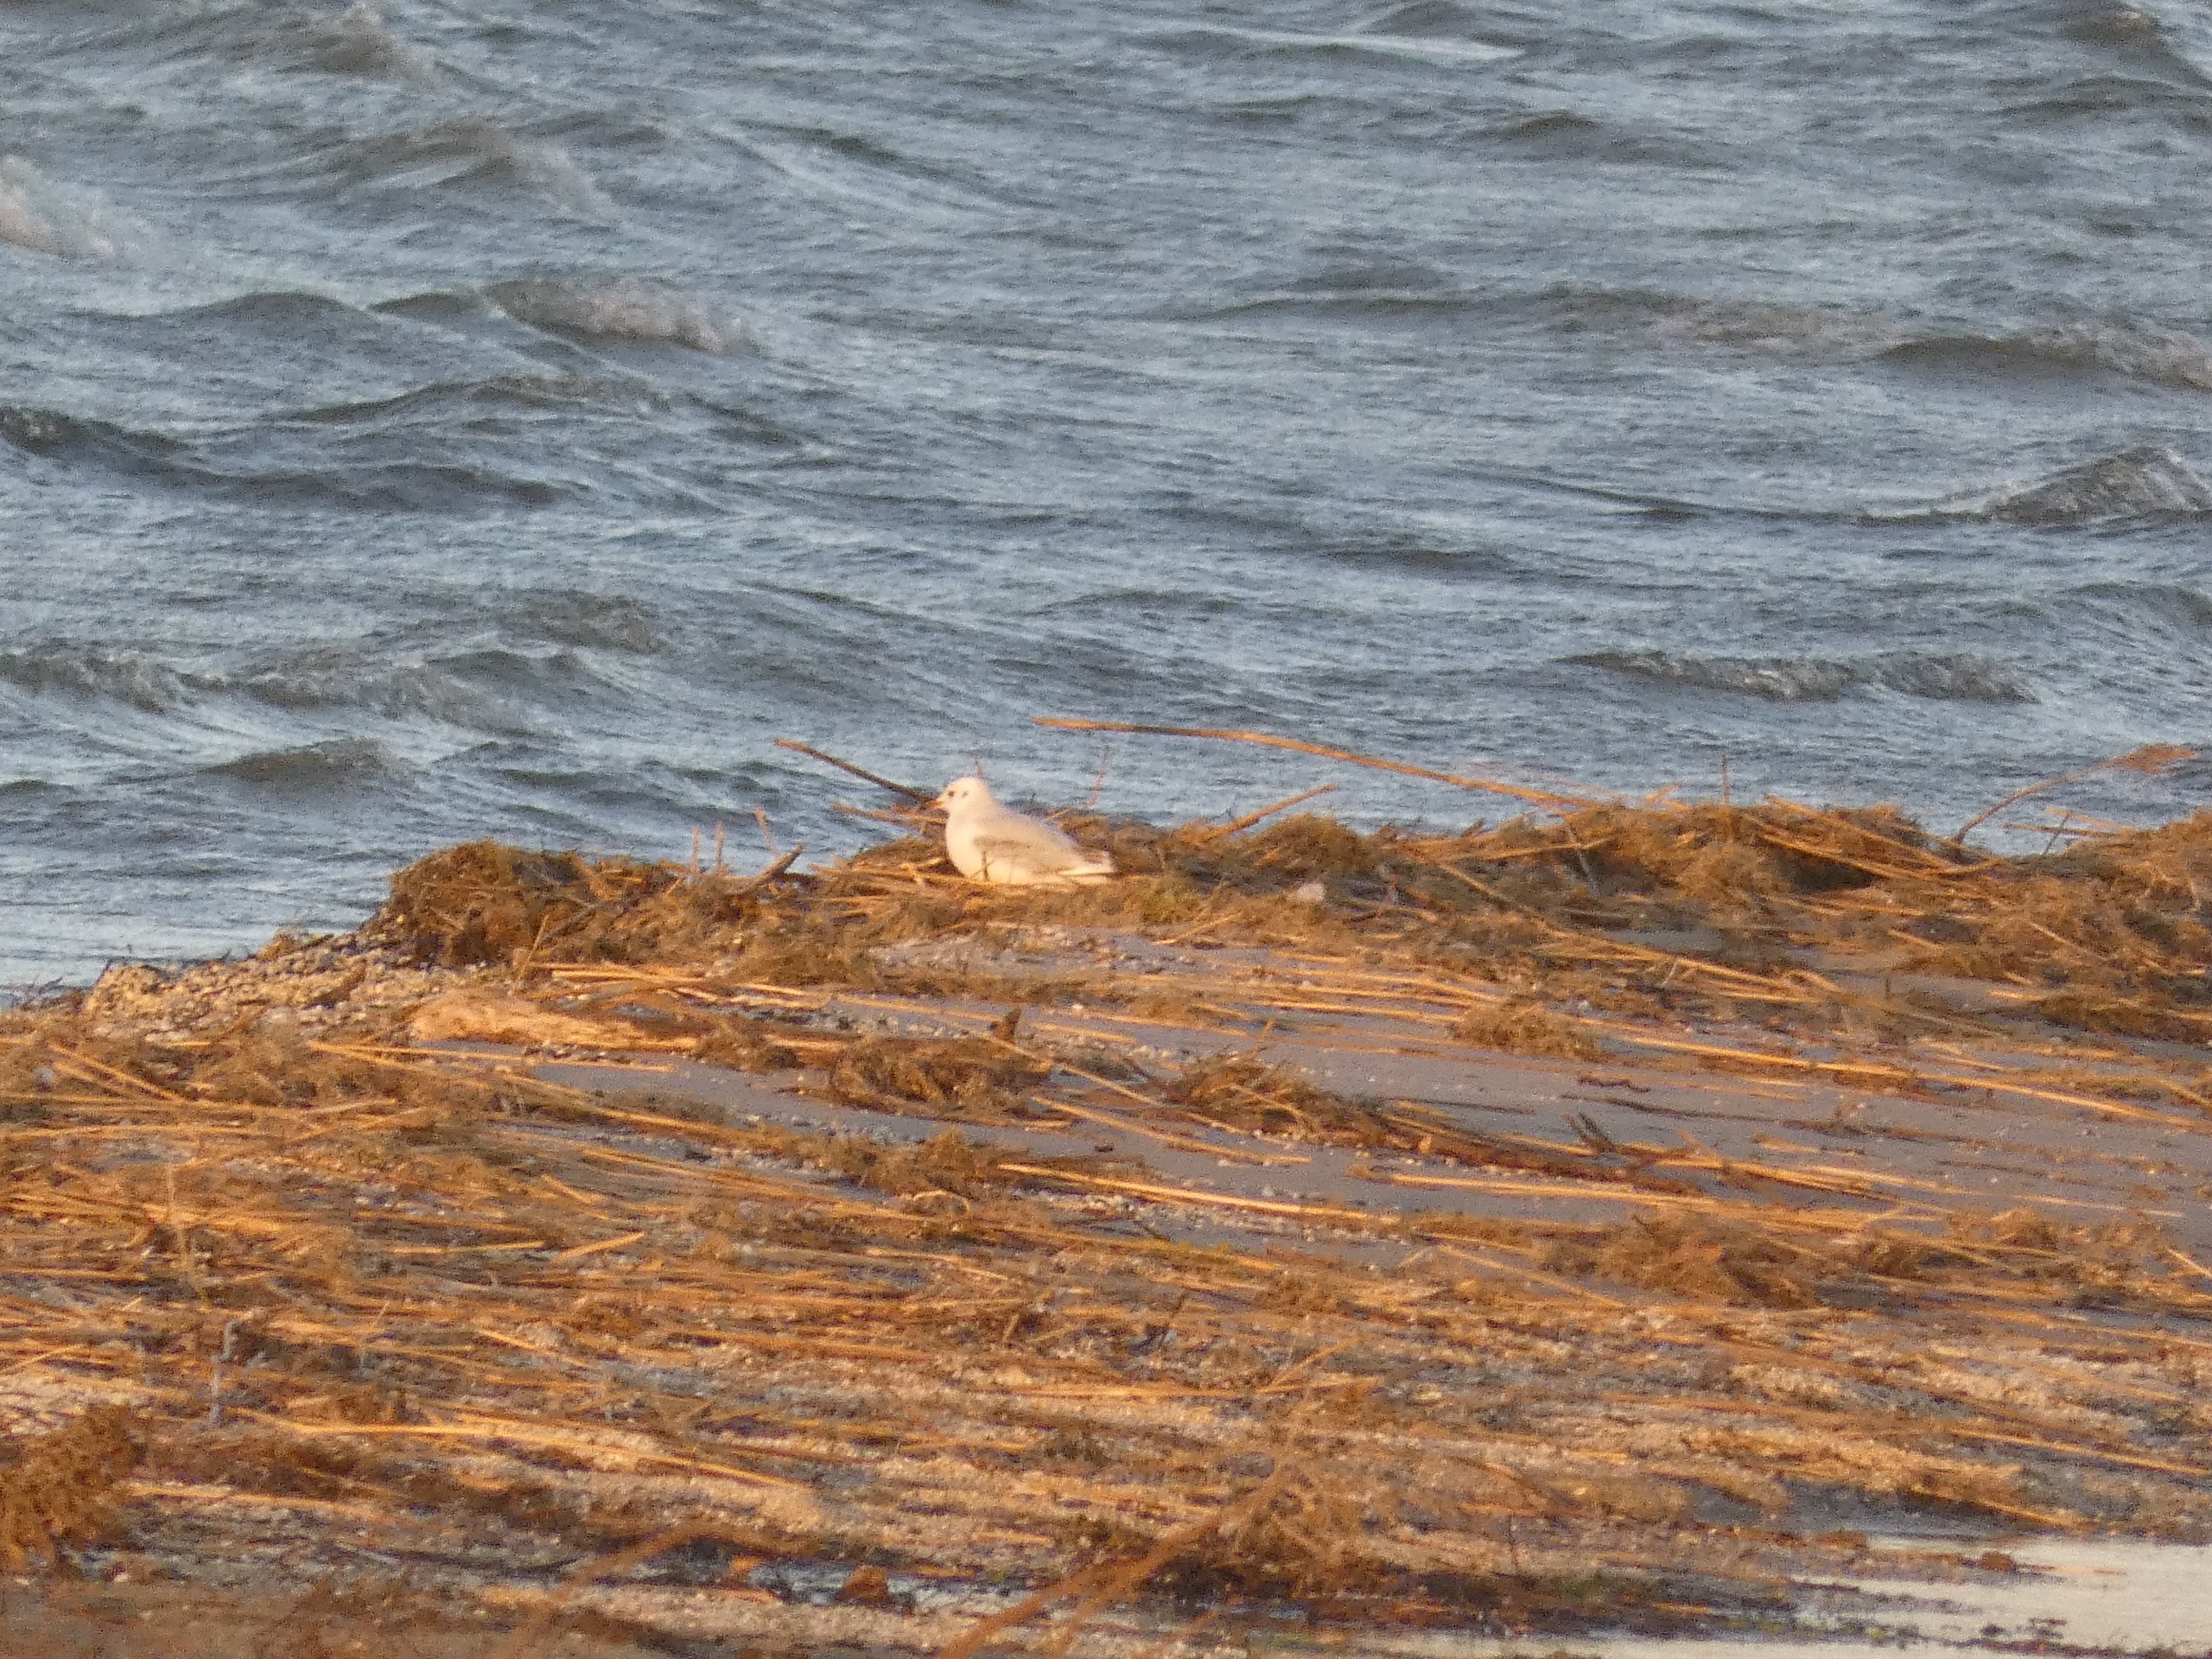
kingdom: Animalia
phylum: Chordata
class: Aves
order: Charadriiformes
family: Laridae
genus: Chroicocephalus
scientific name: Chroicocephalus ridibundus
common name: Hættemåge
